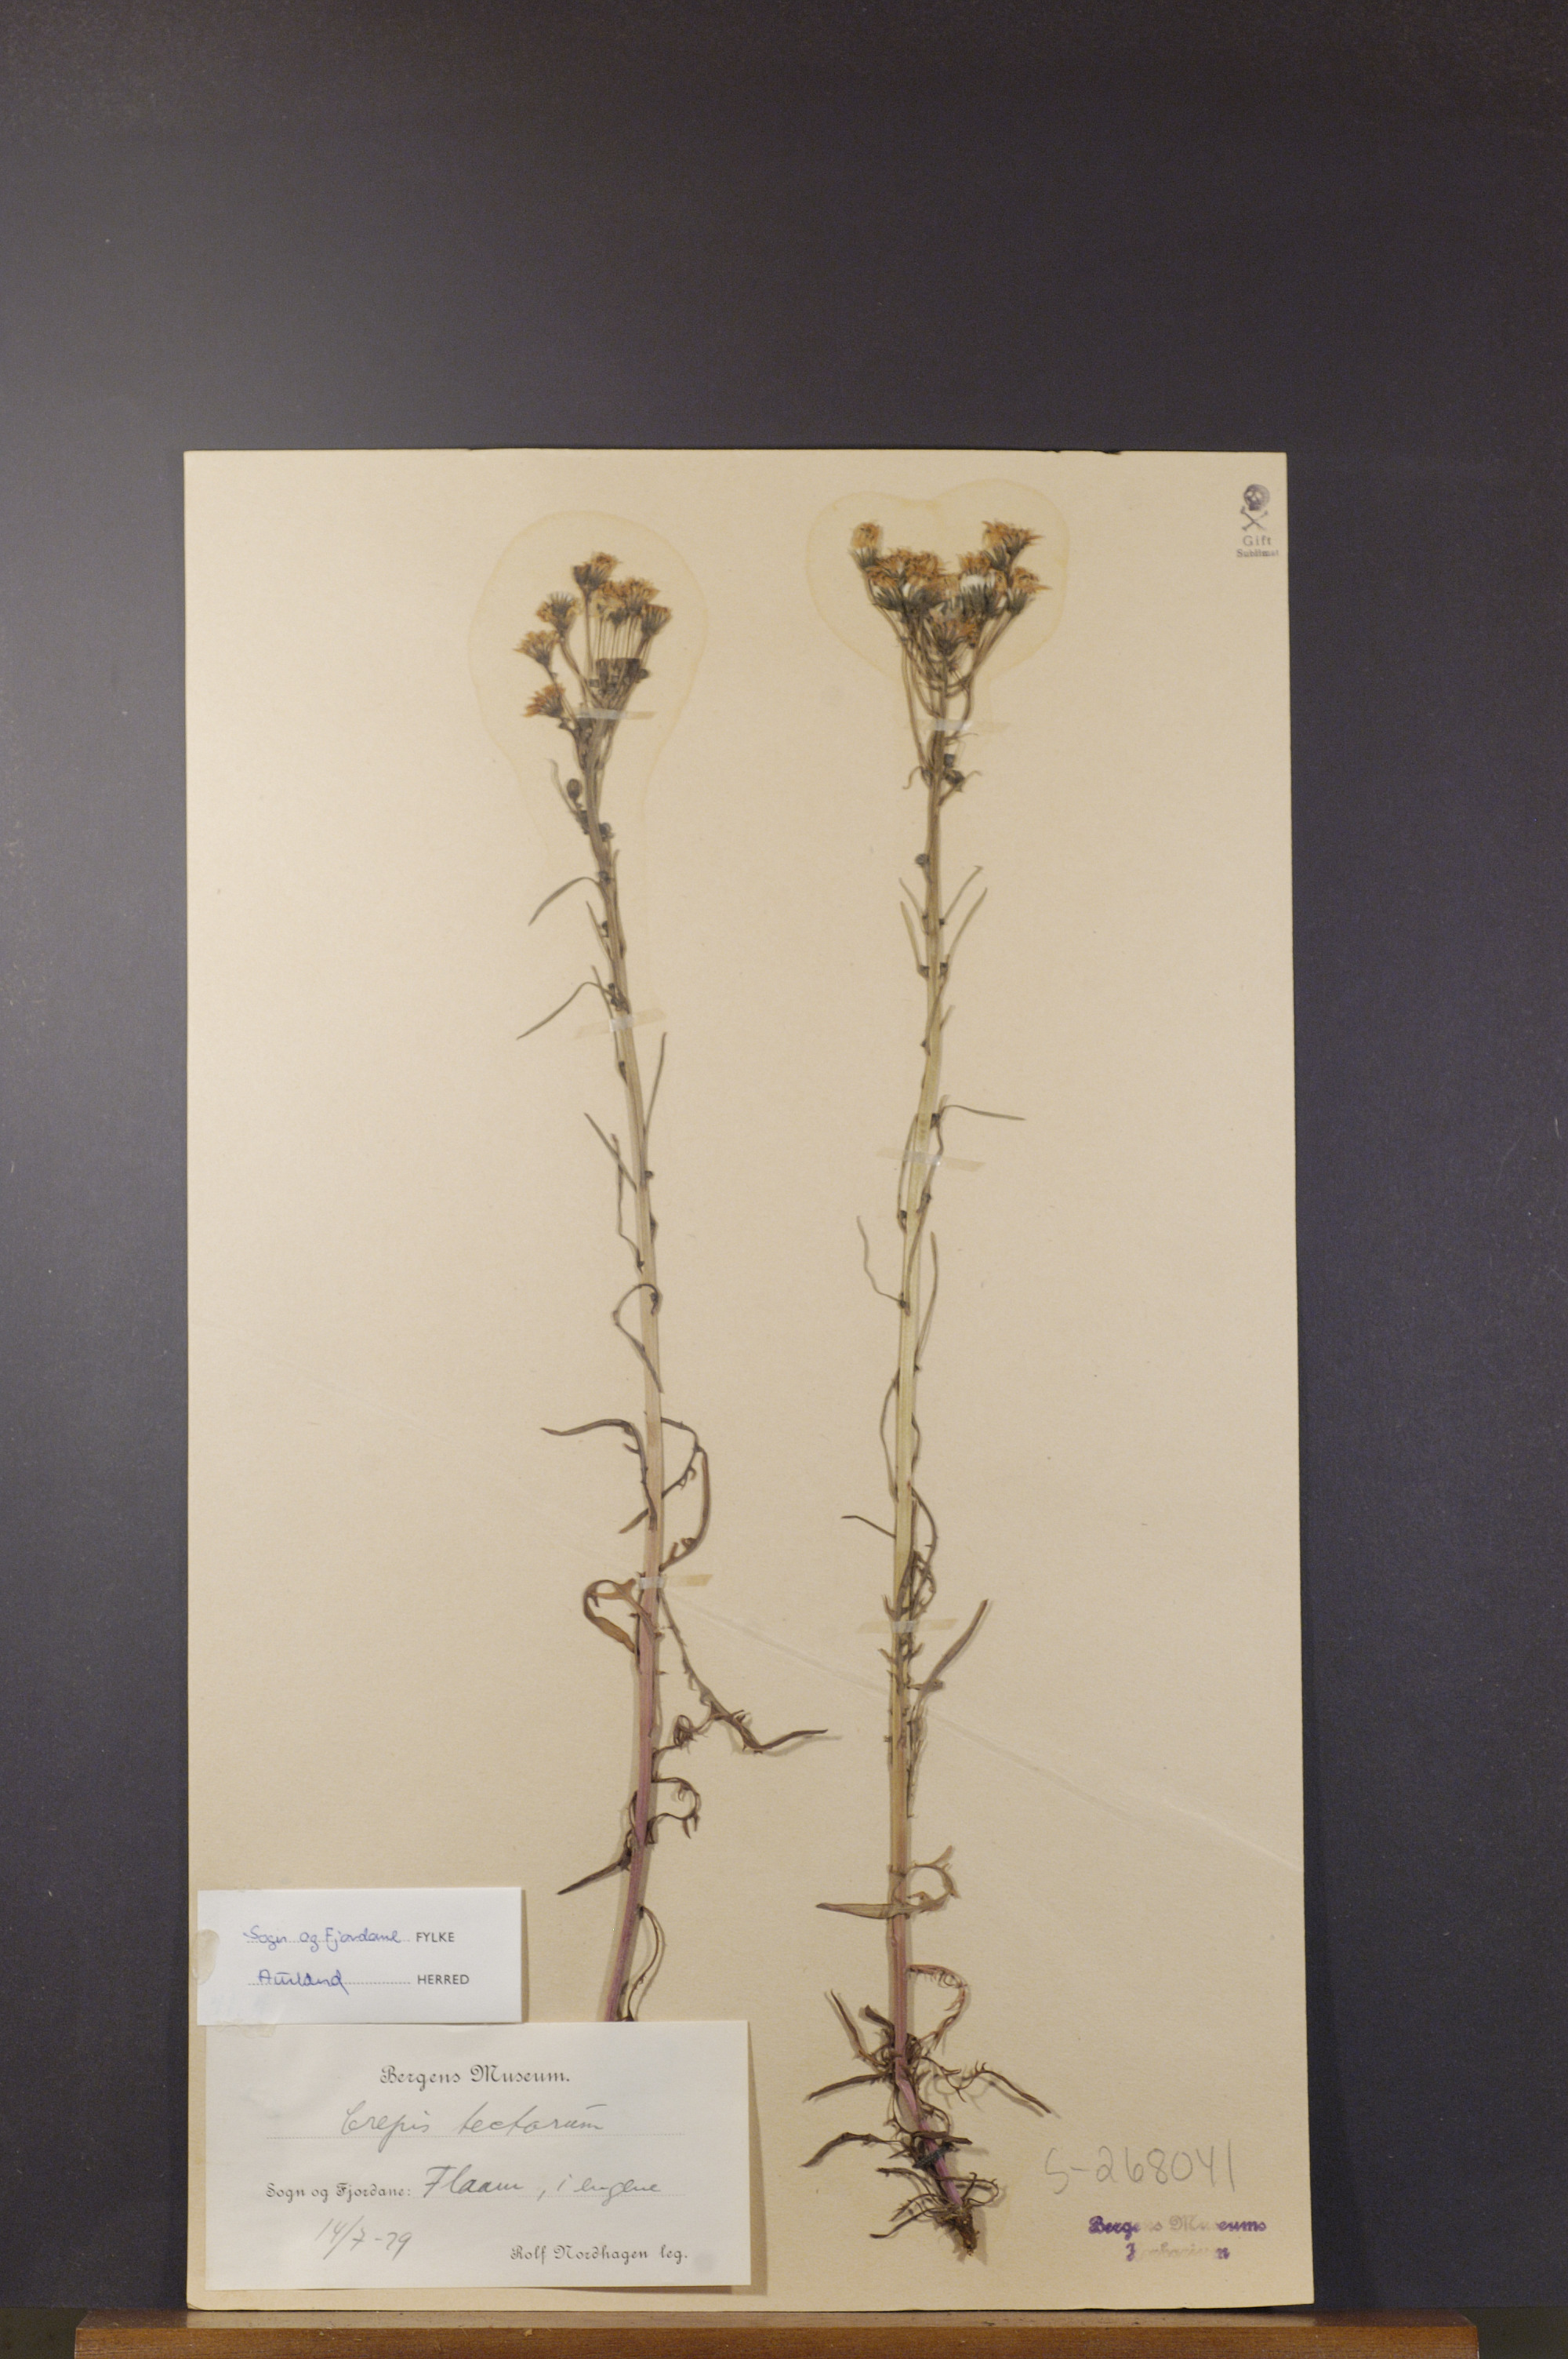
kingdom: Plantae
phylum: Tracheophyta
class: Magnoliopsida
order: Asterales
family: Asteraceae
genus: Crepis
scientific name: Crepis tectorum
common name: Narrow-leaved hawk's-beard
